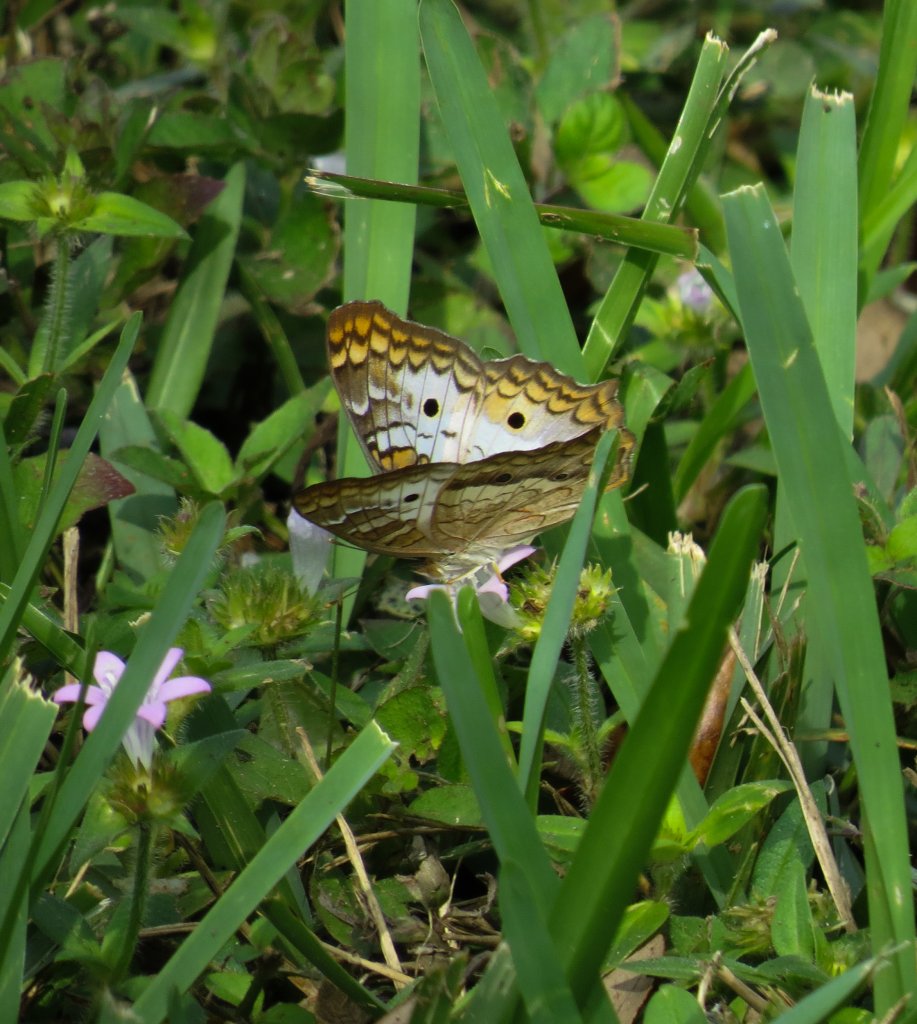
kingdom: Animalia
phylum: Arthropoda
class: Insecta
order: Lepidoptera
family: Nymphalidae
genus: Anartia
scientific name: Anartia jatrophae
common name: White Peacock
